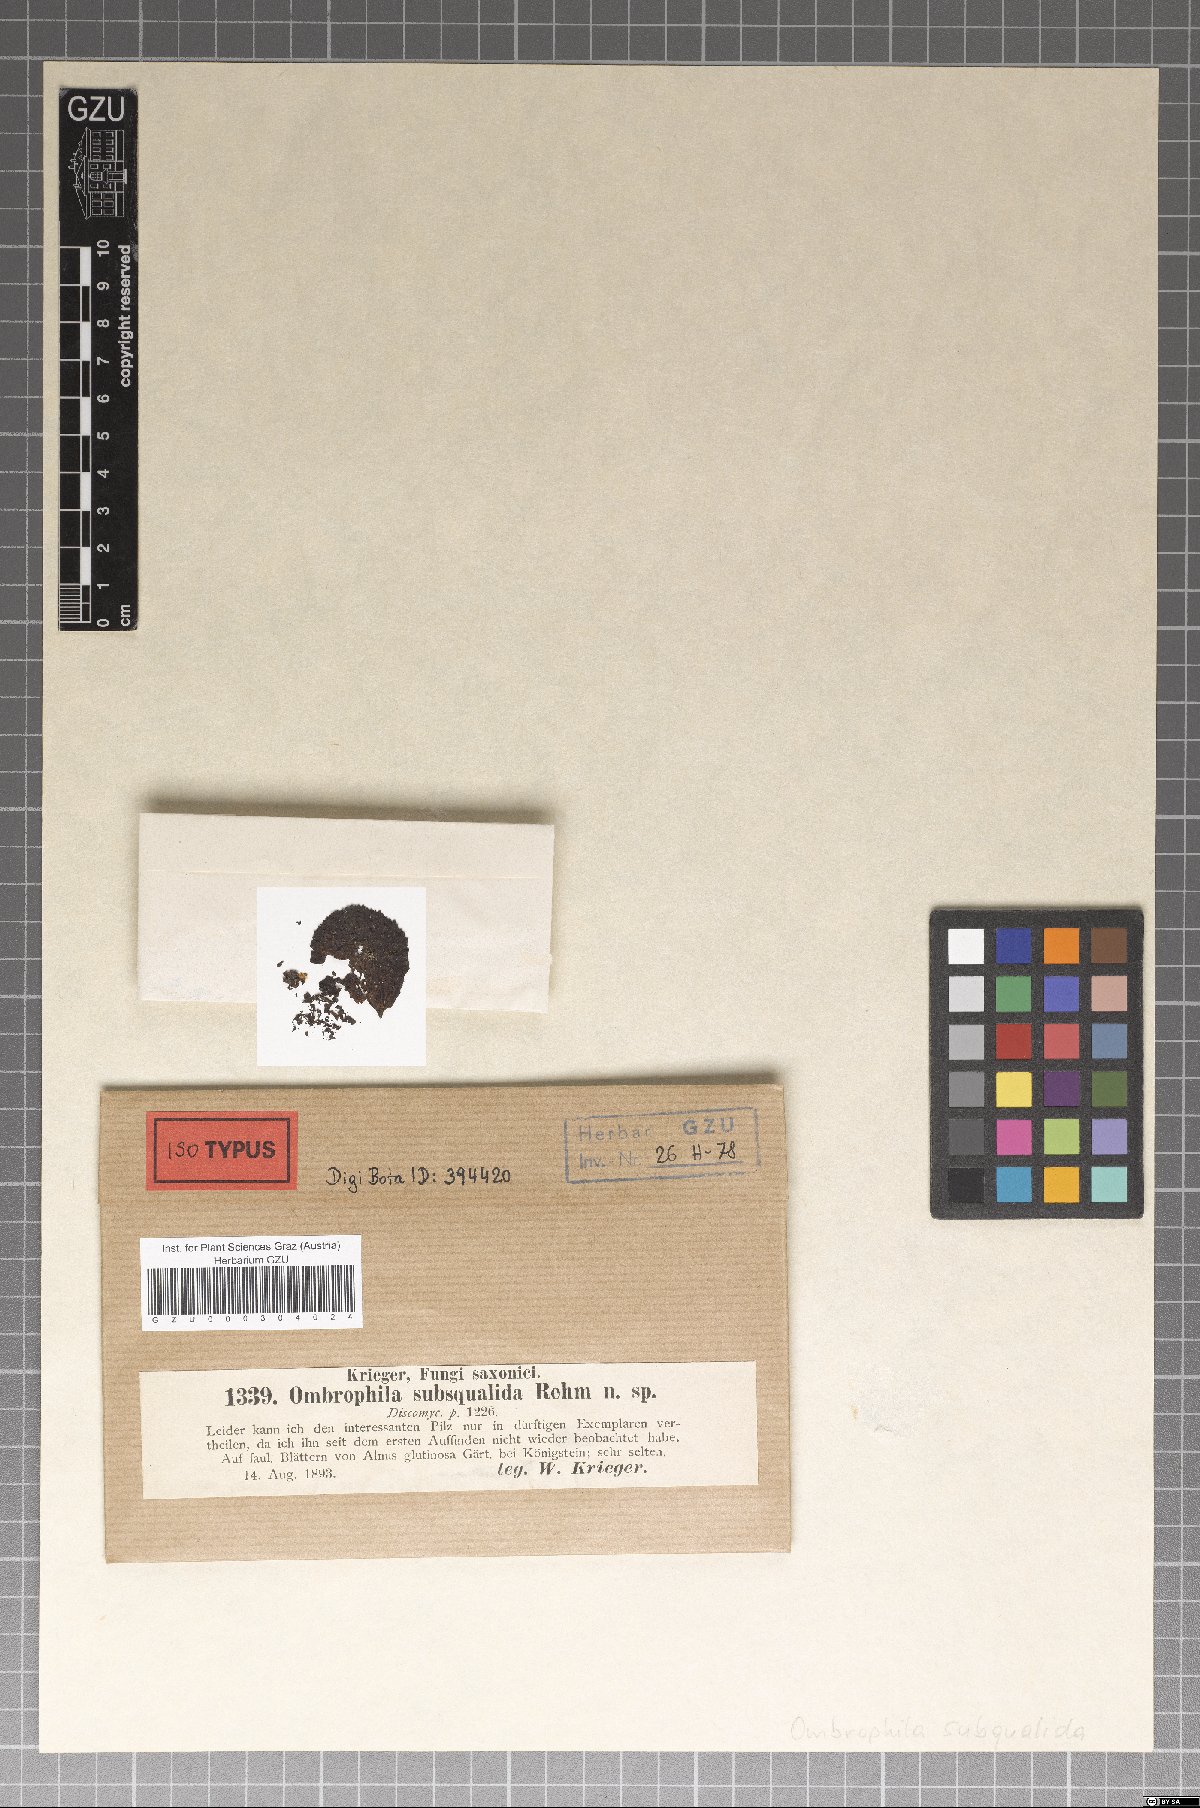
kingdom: Fungi
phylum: Ascomycota
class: Leotiomycetes
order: Helotiales
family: Helotiaceae
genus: Pachydisca
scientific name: Pachydisca subsqualida
